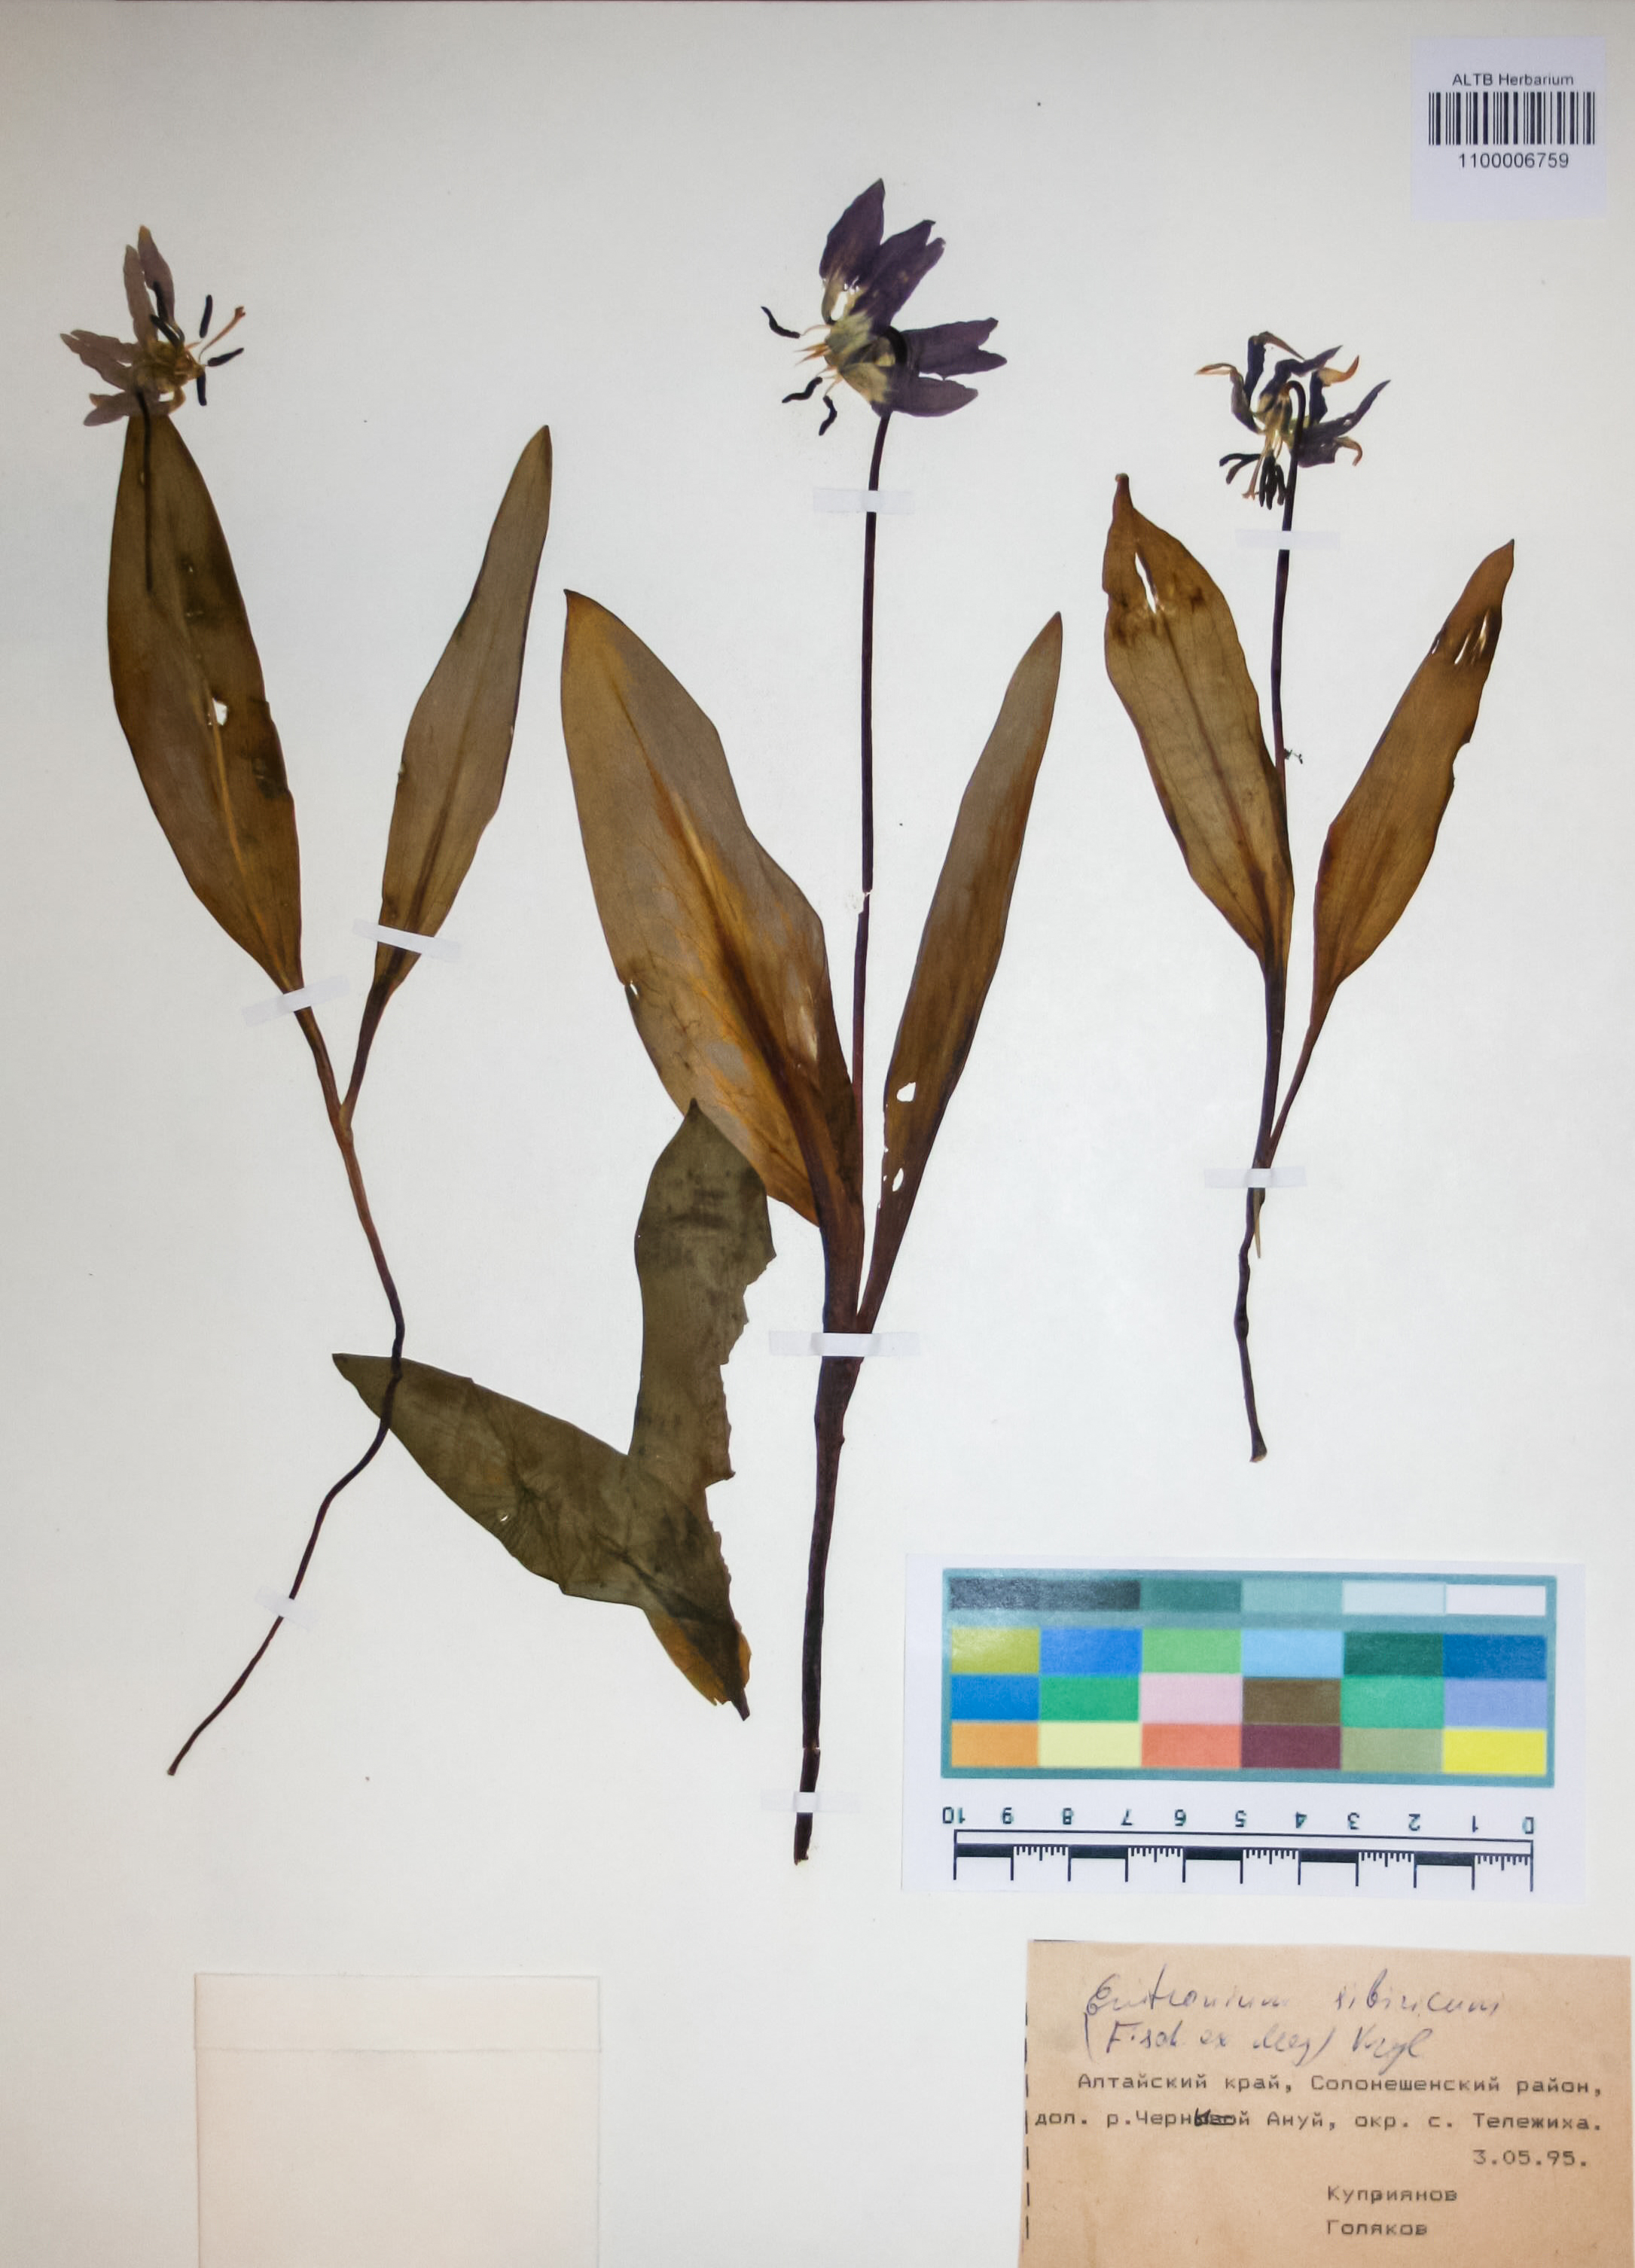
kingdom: Plantae
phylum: Tracheophyta
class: Liliopsida
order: Liliales
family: Liliaceae
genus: Erythronium
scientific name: Erythronium sibiricum
